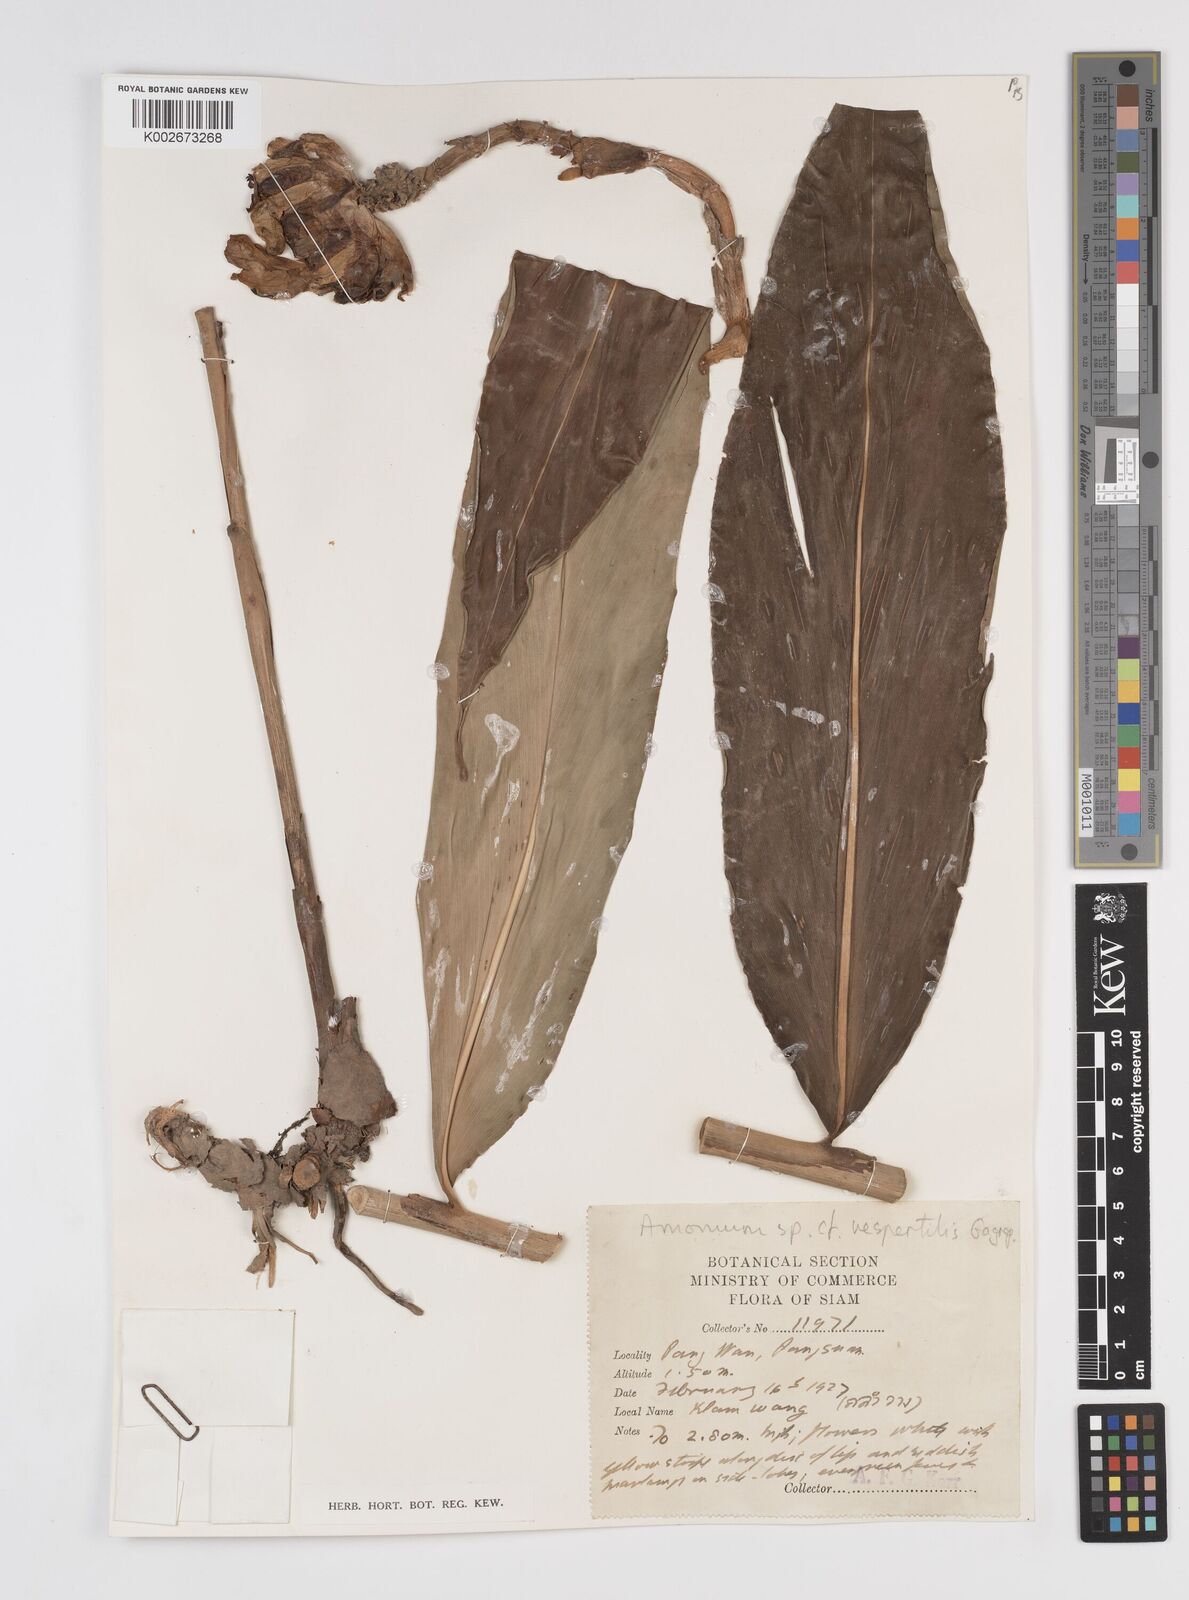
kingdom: Plantae
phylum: Tracheophyta
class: Liliopsida
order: Zingiberales
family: Zingiberaceae
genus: Amomum
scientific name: Amomum
